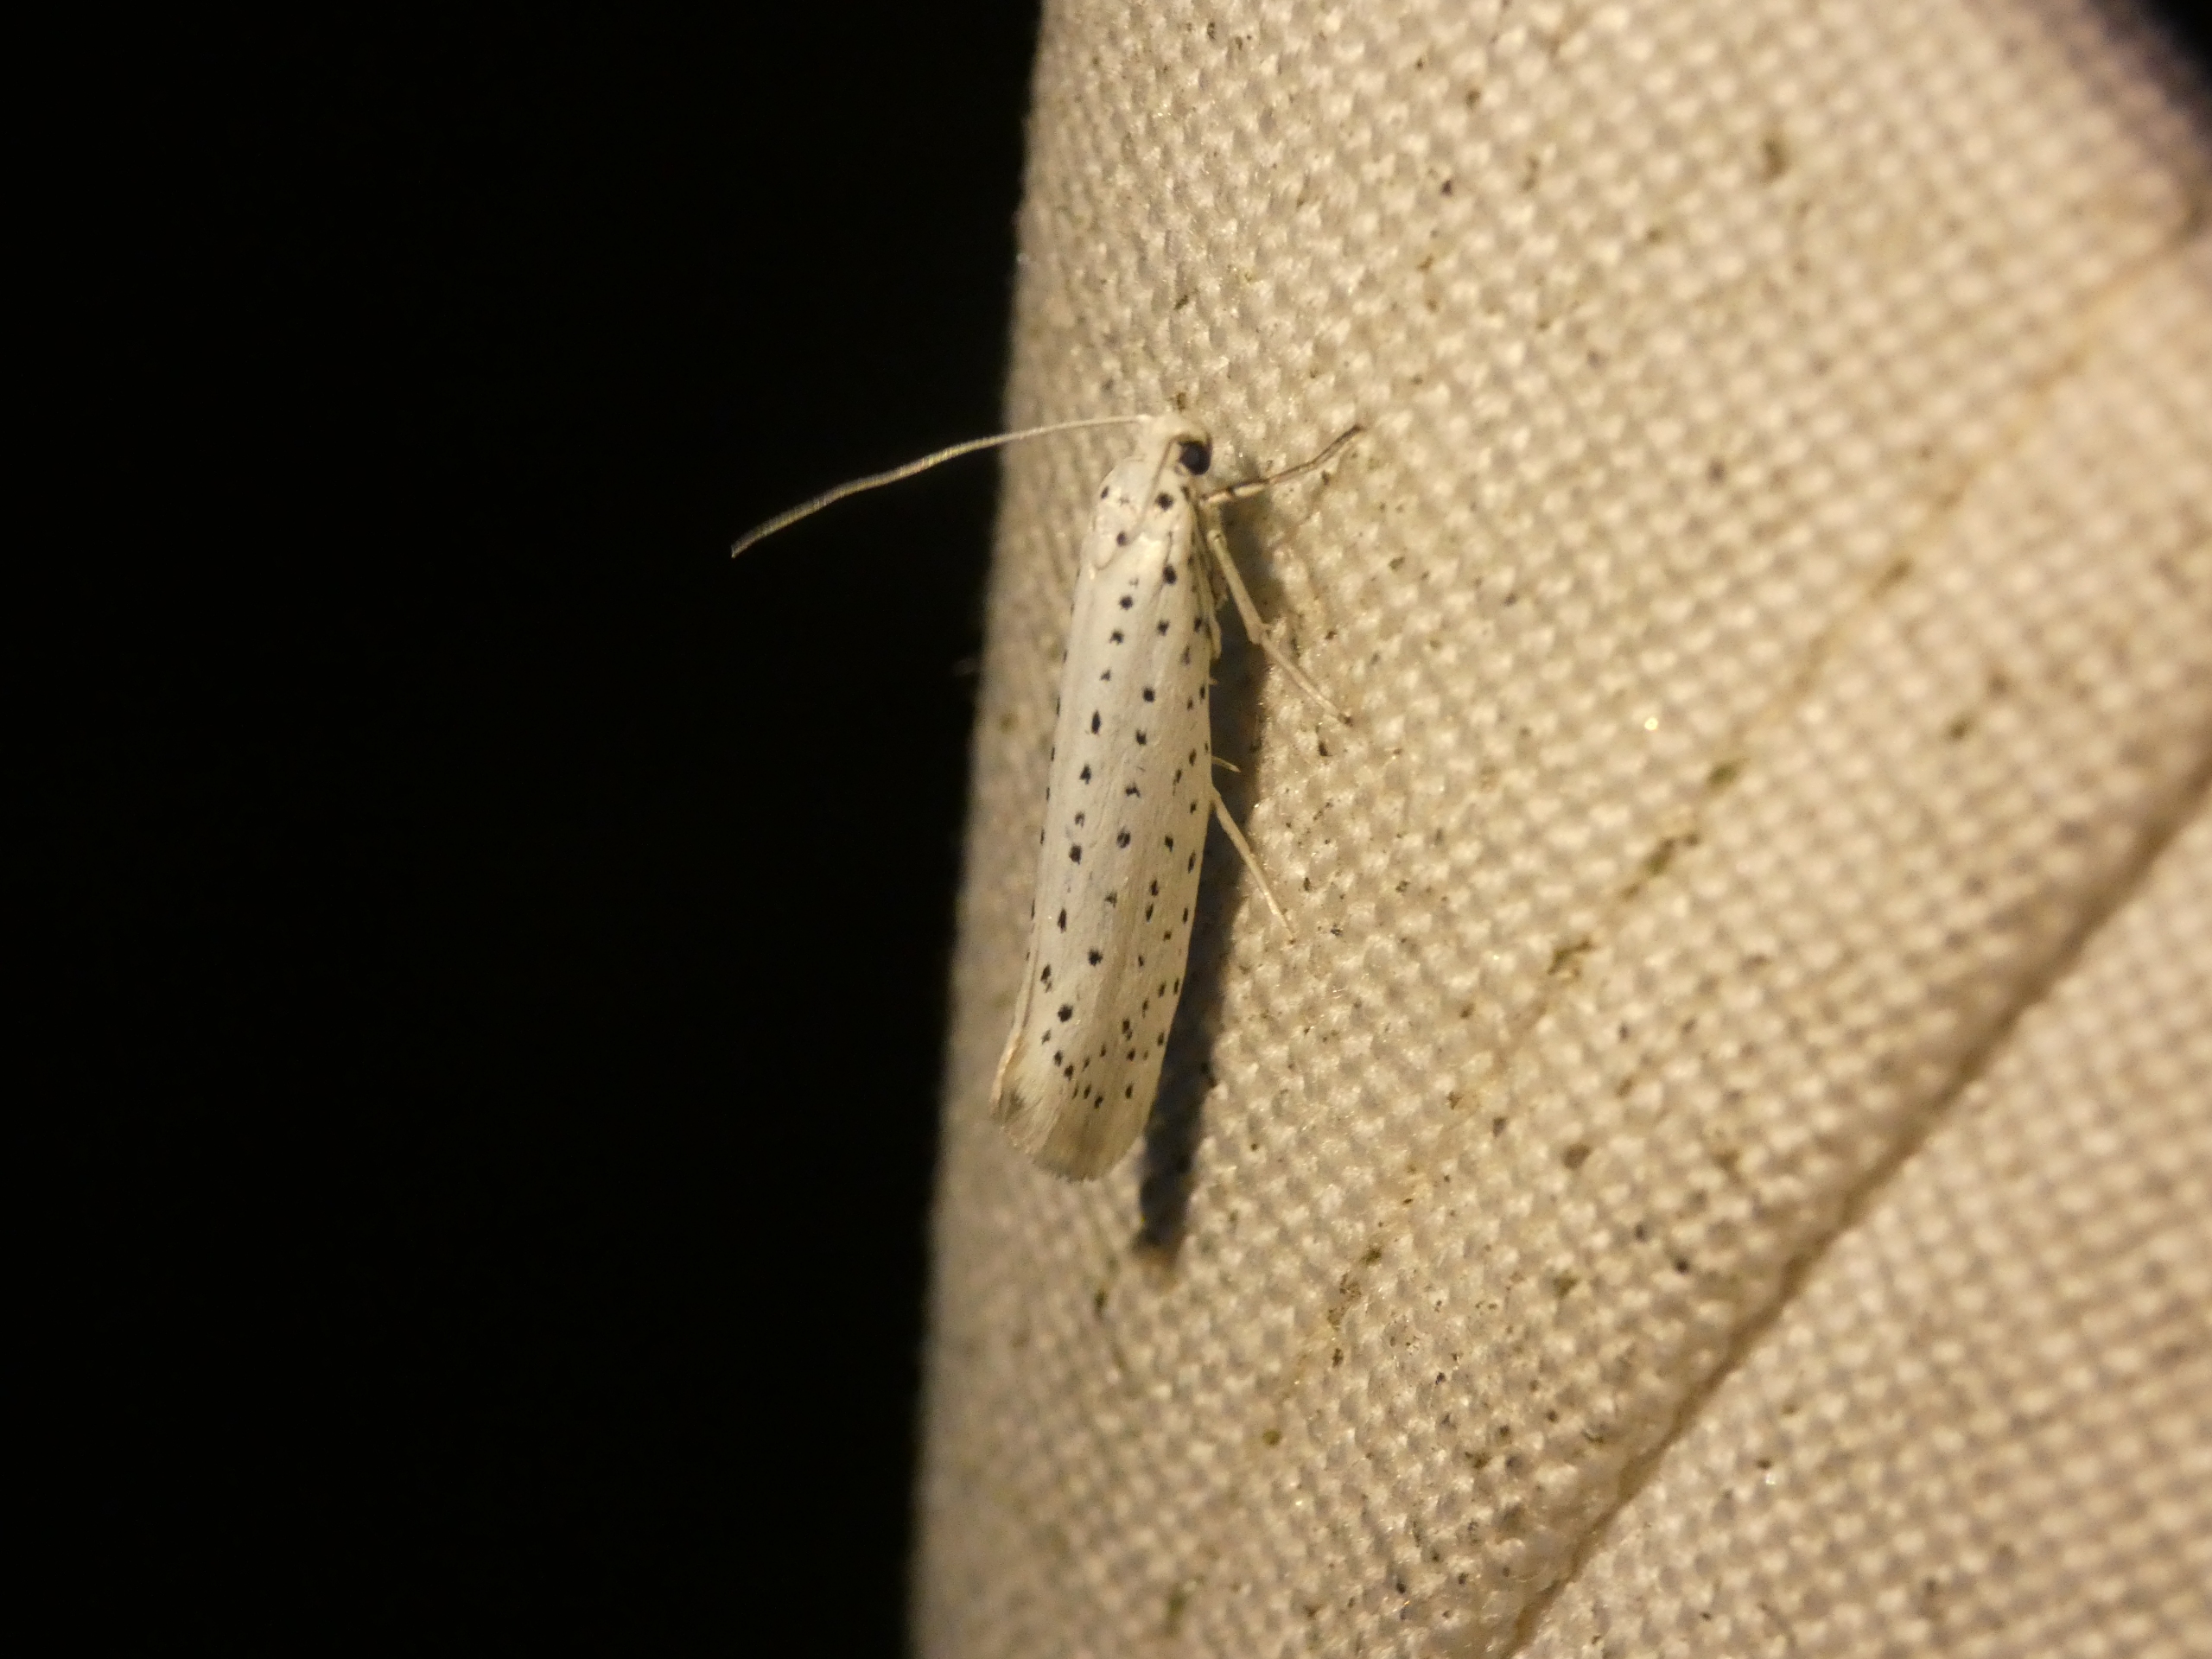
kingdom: Animalia
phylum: Arthropoda
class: Insecta
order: Lepidoptera
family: Yponomeutidae
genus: Yponomeuta
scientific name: Yponomeuta evonymella
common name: Hægspindemøl
